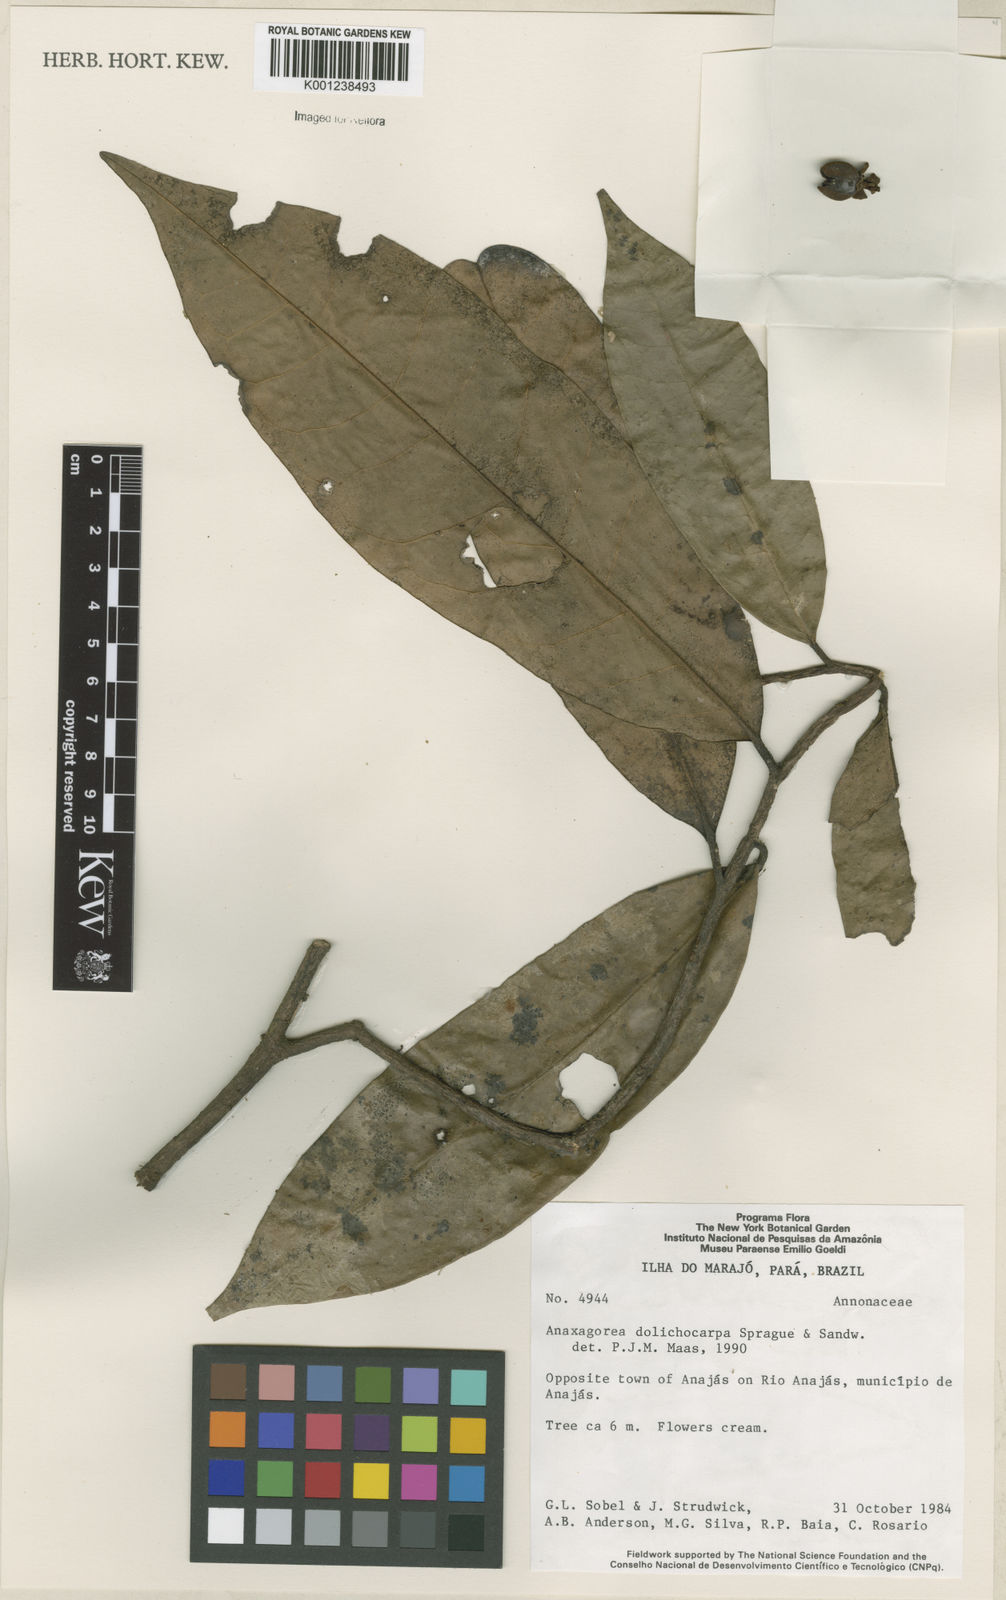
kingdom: Plantae
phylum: Tracheophyta
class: Magnoliopsida
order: Magnoliales
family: Annonaceae
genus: Anaxagorea
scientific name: Anaxagorea dolichocarpa
